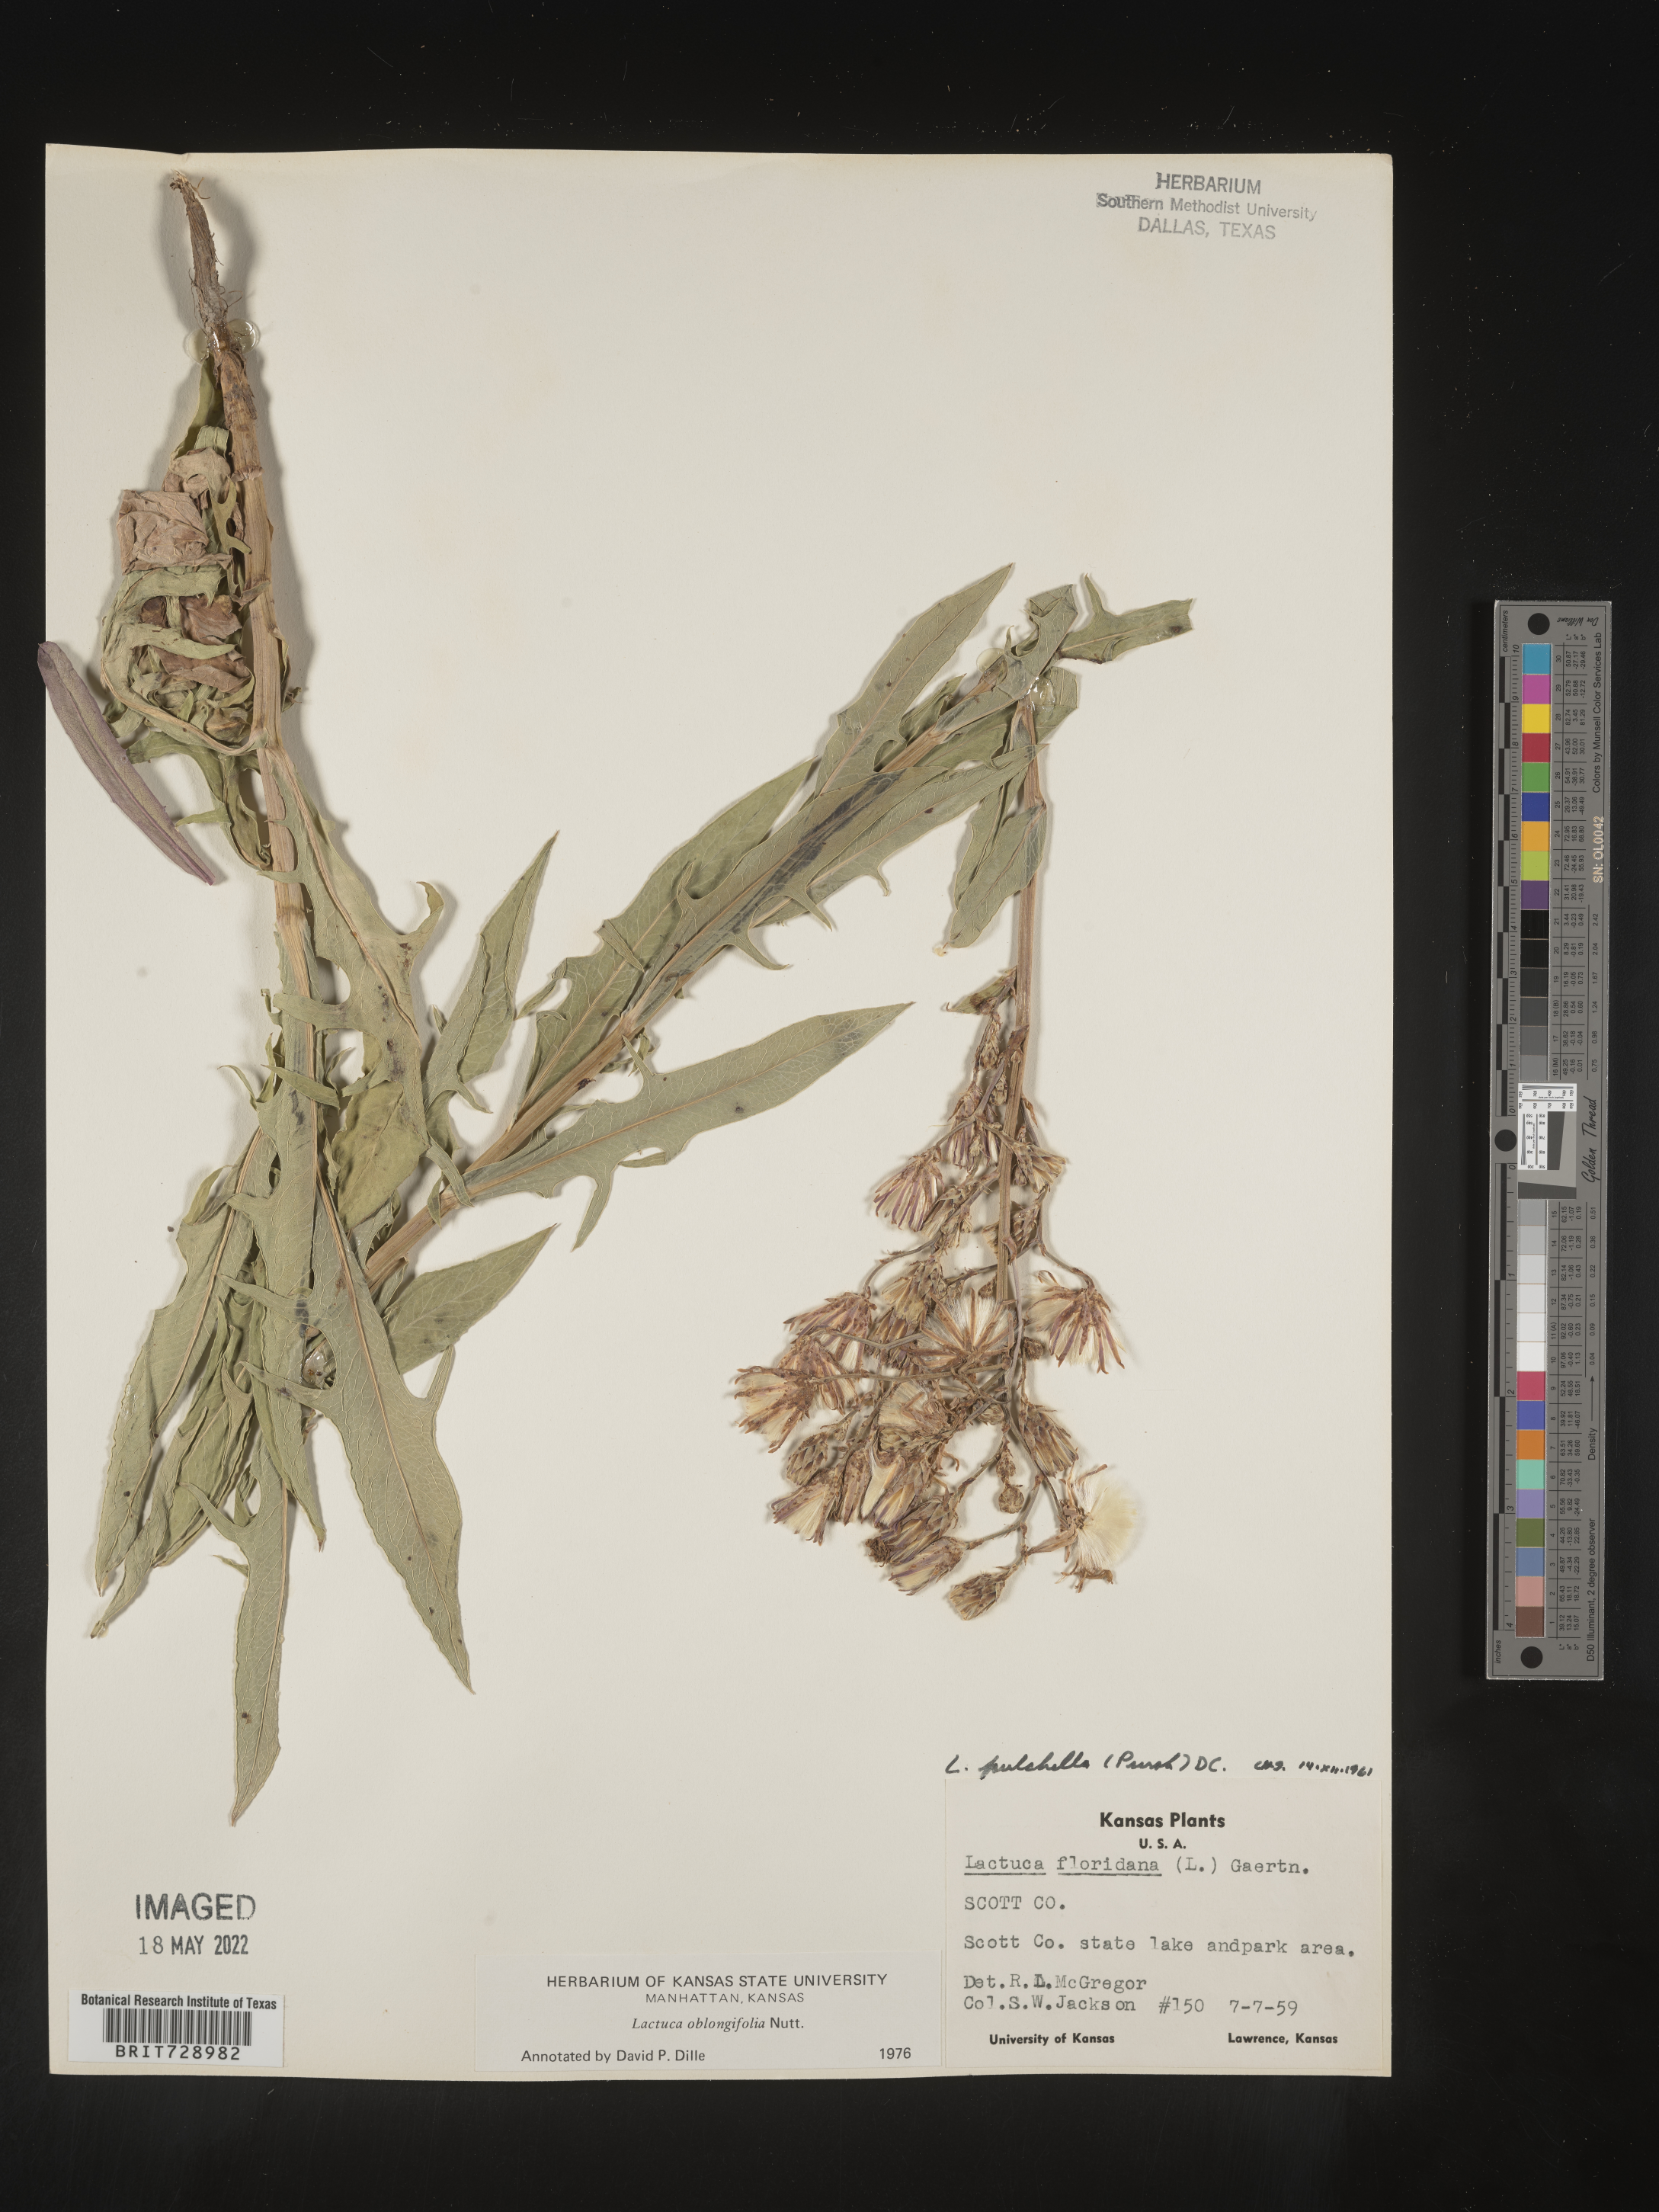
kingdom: Plantae
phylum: Tracheophyta
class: Magnoliopsida
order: Asterales
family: Asteraceae
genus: Lactuca
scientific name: Lactuca pulchella
